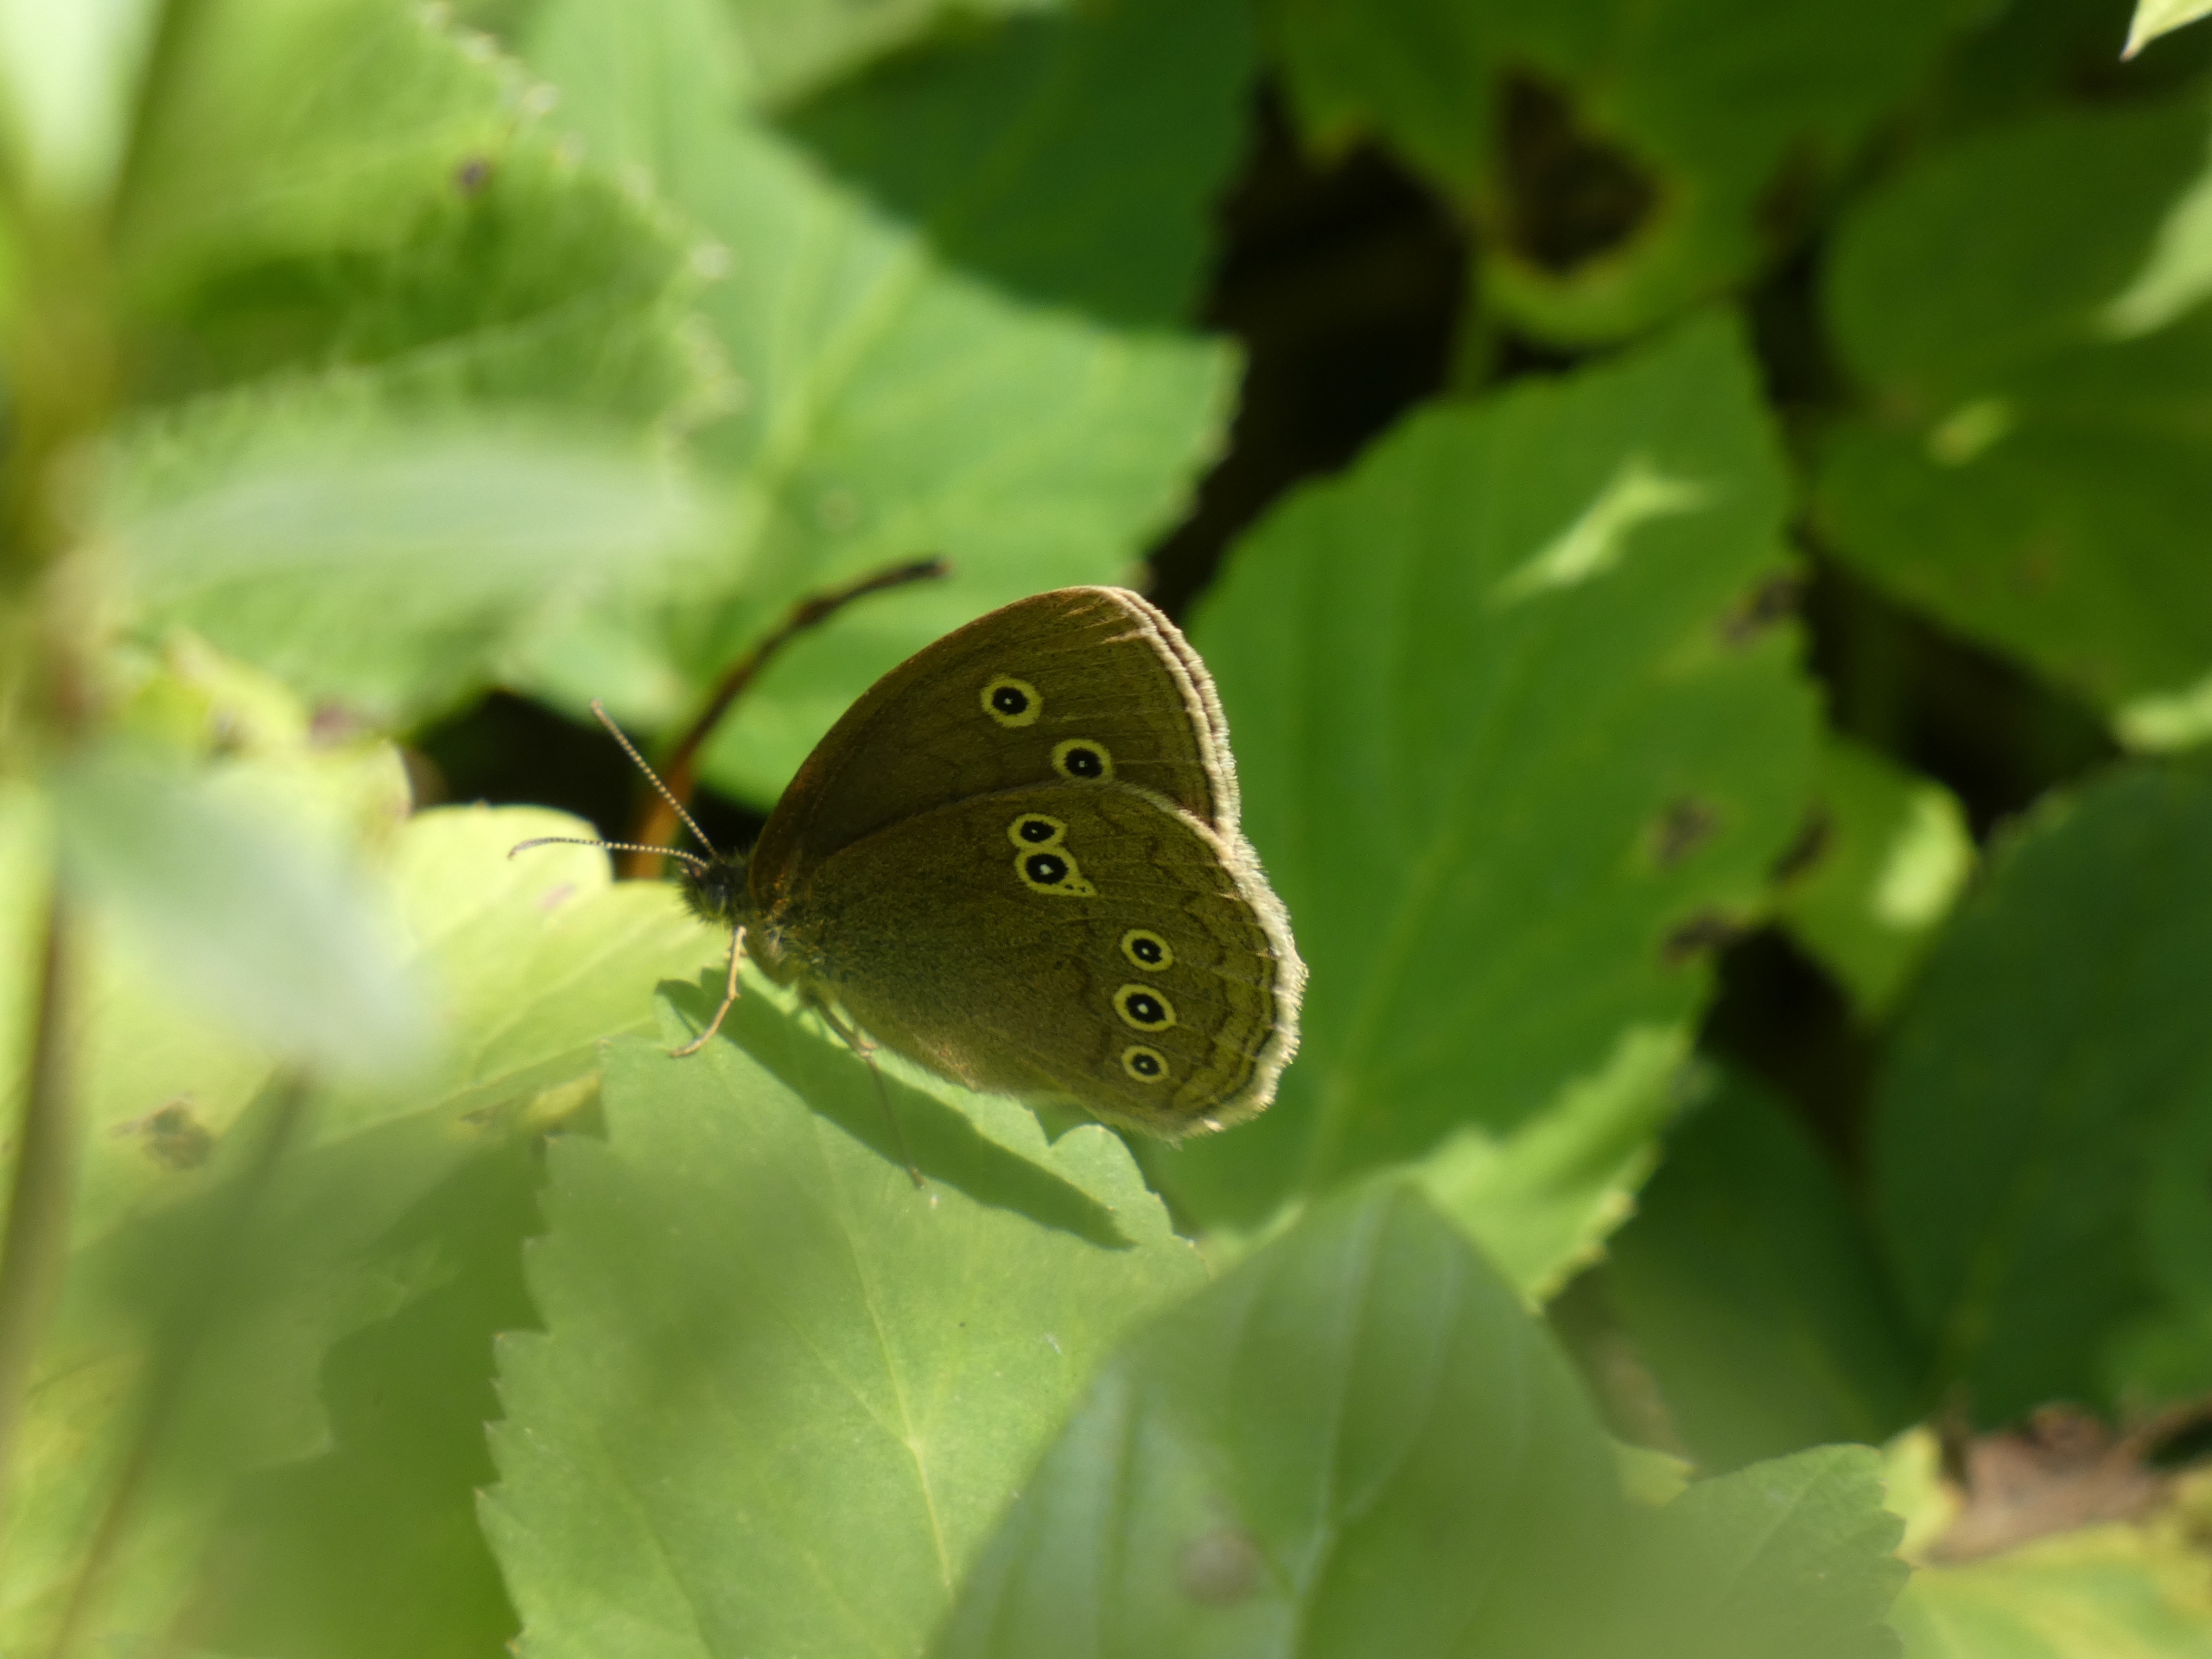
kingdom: Animalia
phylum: Arthropoda
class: Insecta
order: Lepidoptera
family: Nymphalidae
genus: Aphantopus
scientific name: Aphantopus hyperantus
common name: Engrandøje
